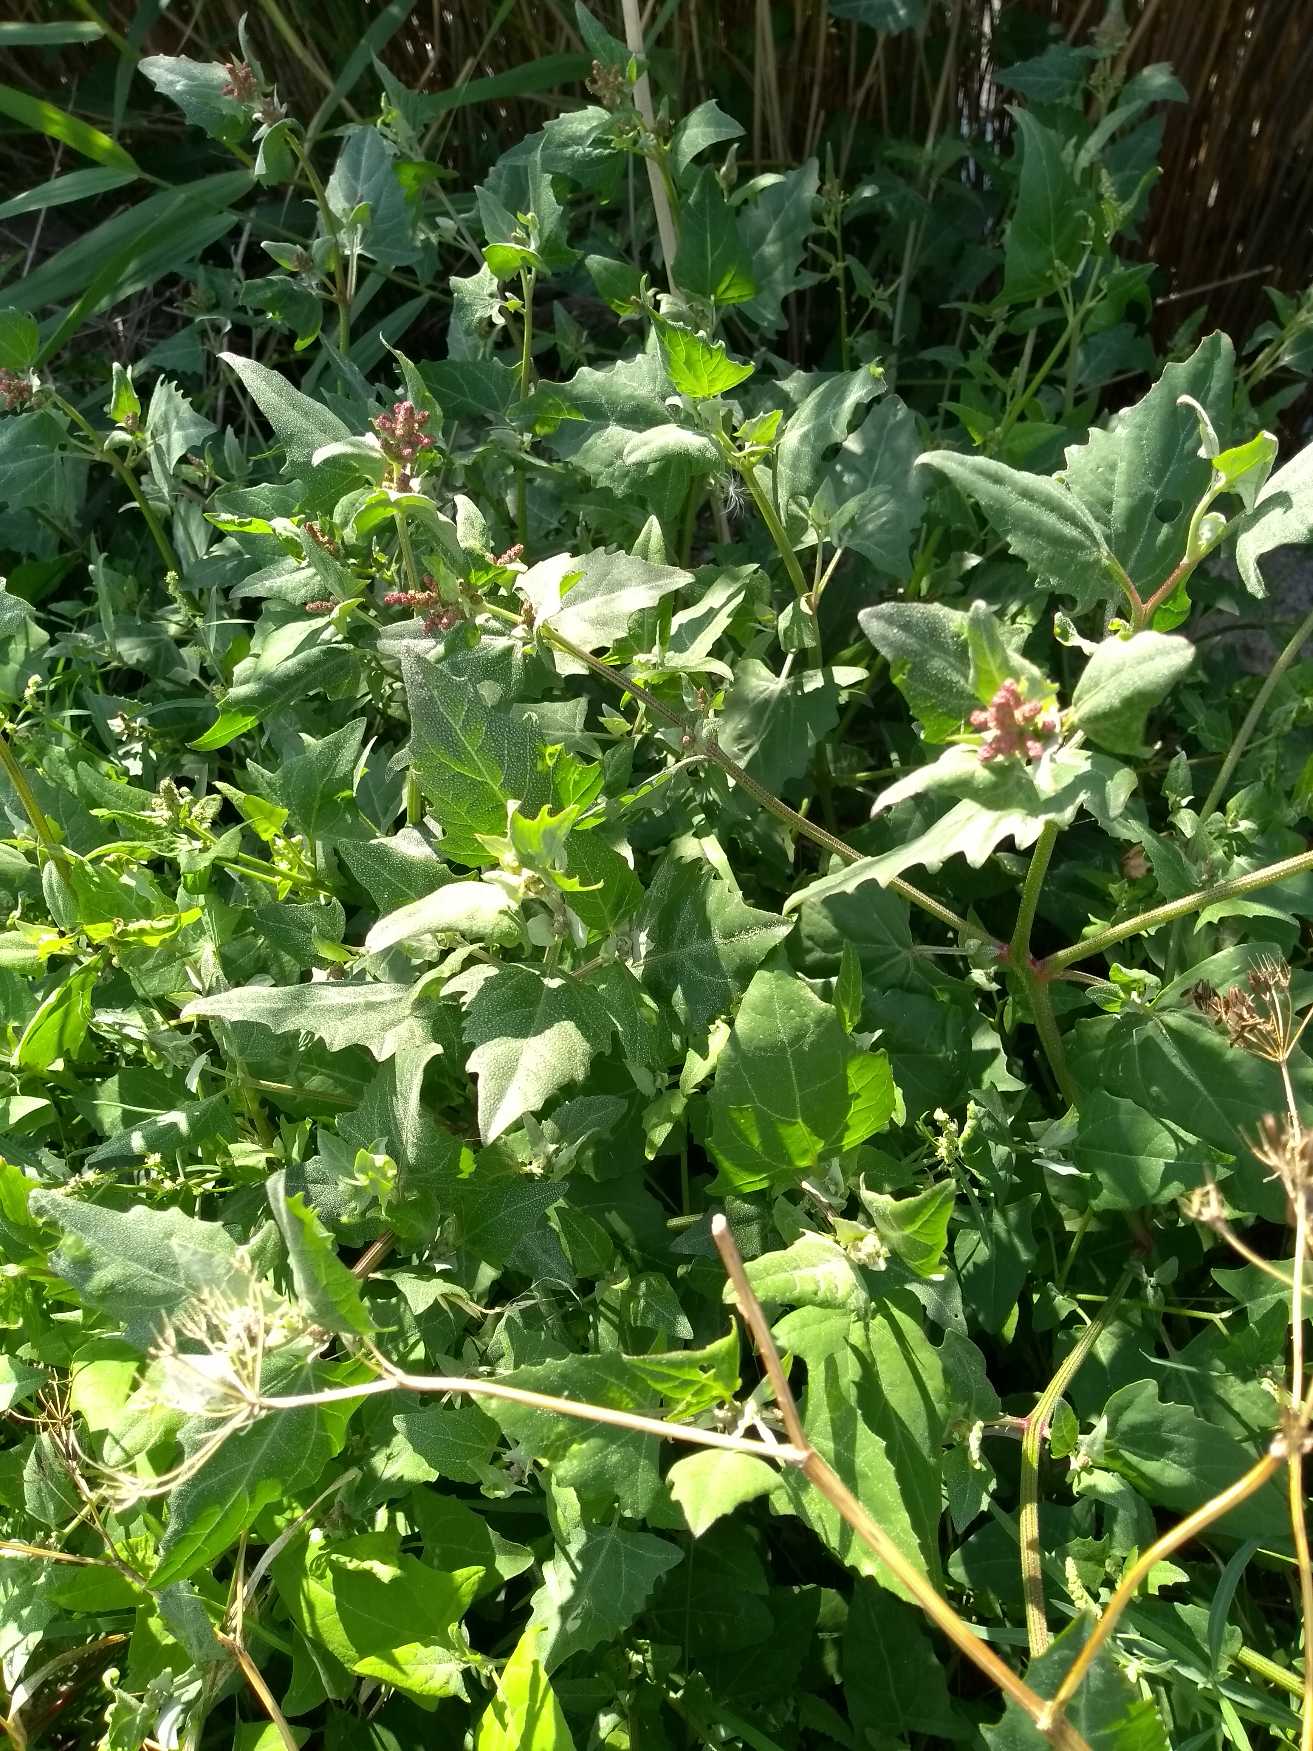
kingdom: Plantae
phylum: Tracheophyta
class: Magnoliopsida
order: Caryophyllales
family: Amaranthaceae
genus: Atriplex
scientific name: Atriplex prostrata
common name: Spyd-mælde
